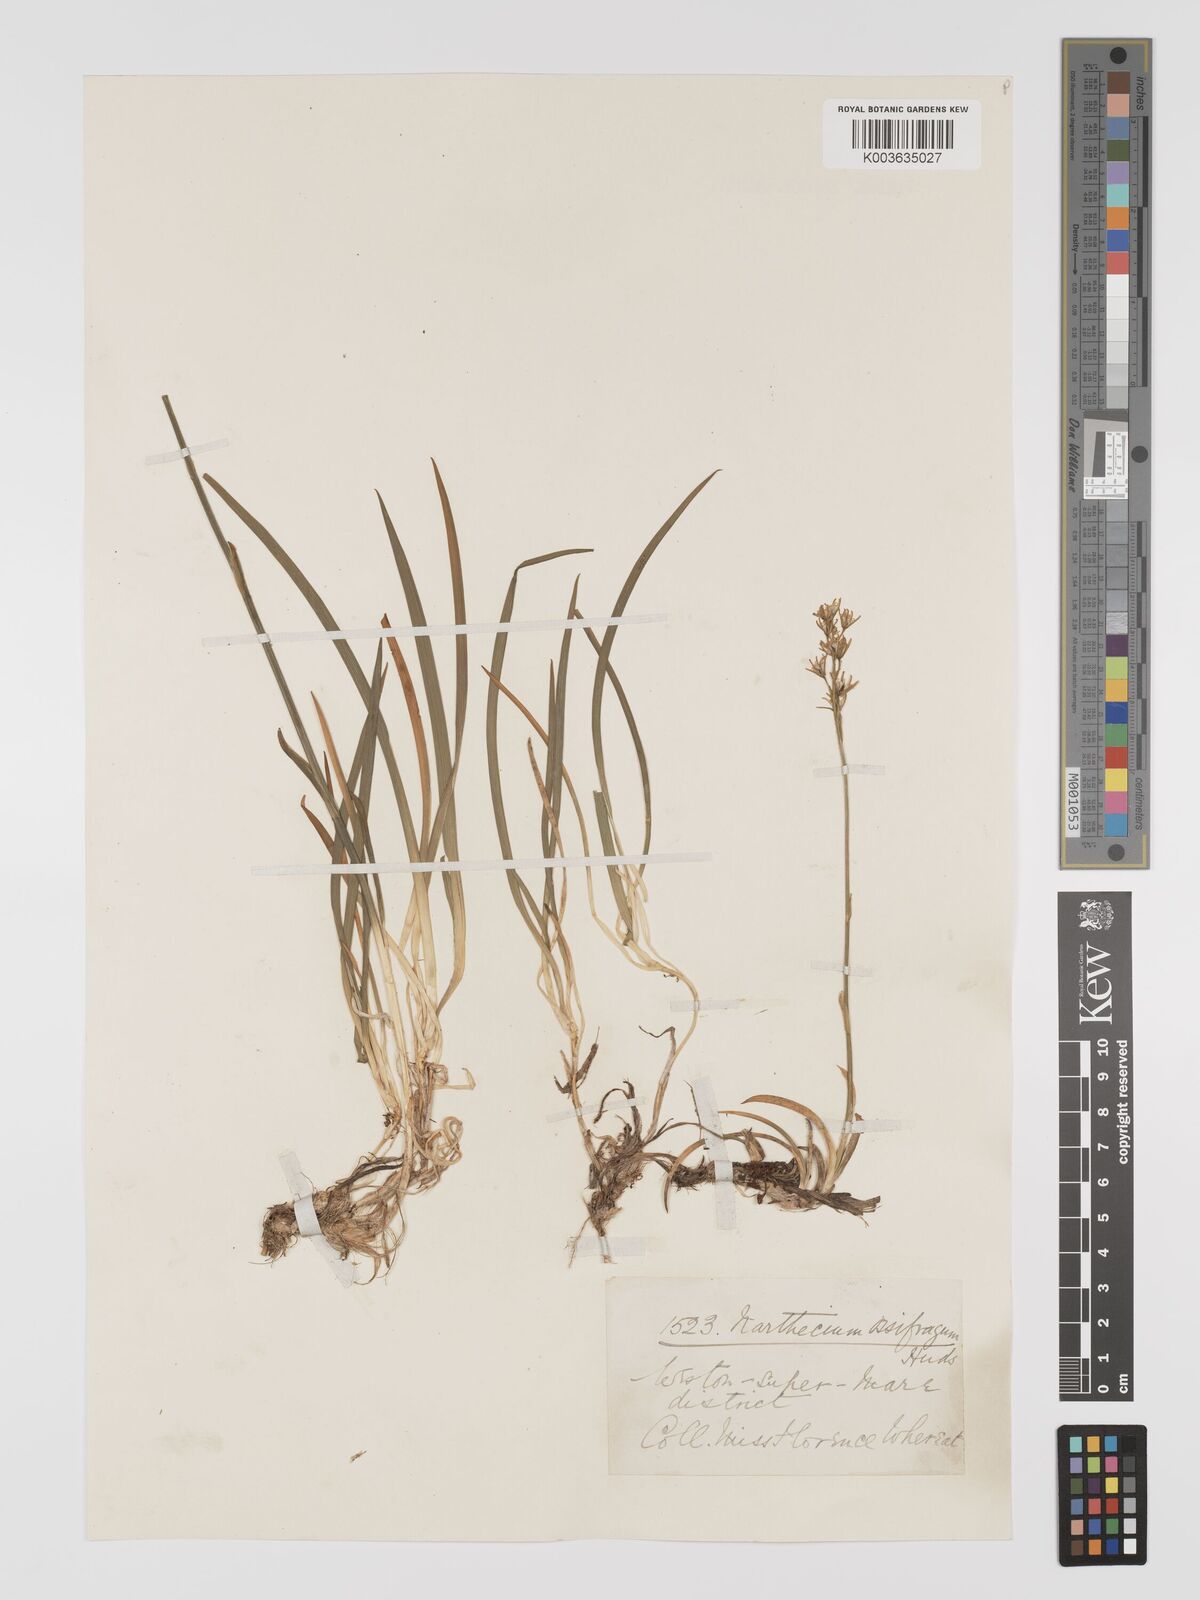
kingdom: Plantae
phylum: Tracheophyta
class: Liliopsida
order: Dioscoreales
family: Nartheciaceae
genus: Narthecium
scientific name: Narthecium ossifragum
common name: Bog asphodel
